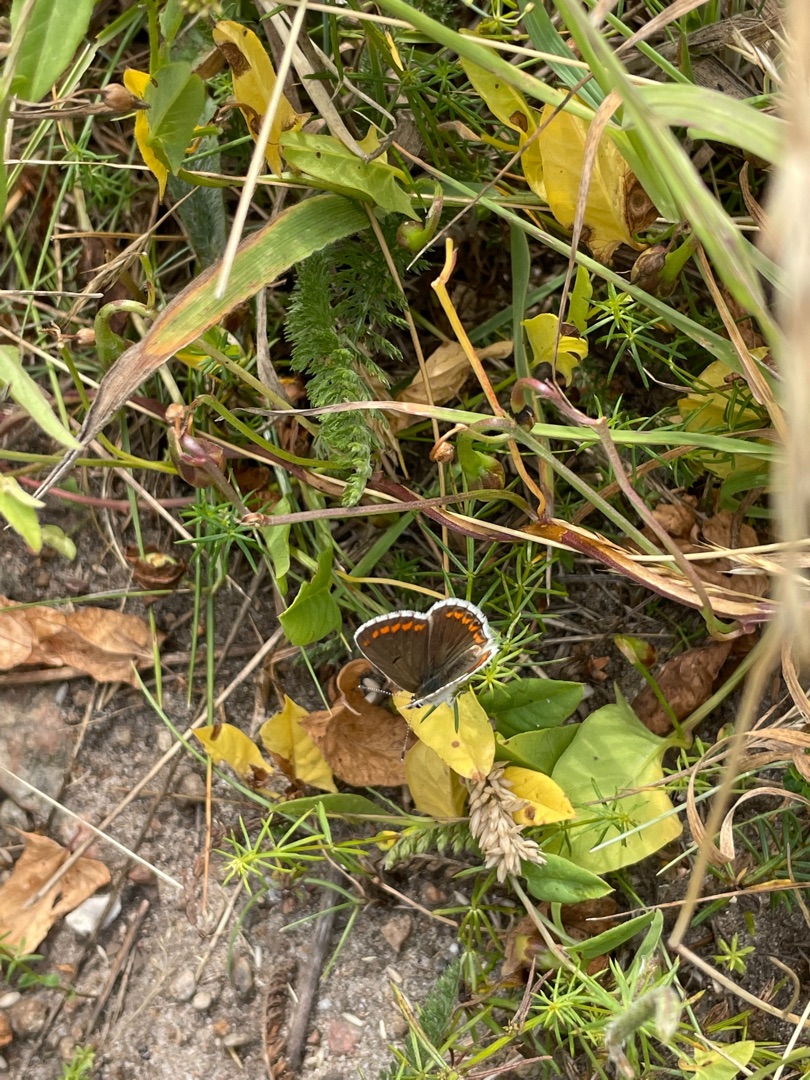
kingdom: Animalia
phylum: Arthropoda
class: Insecta
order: Lepidoptera
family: Lycaenidae
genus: Aricia
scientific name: Aricia agestis
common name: Rødplettet blåfugl
